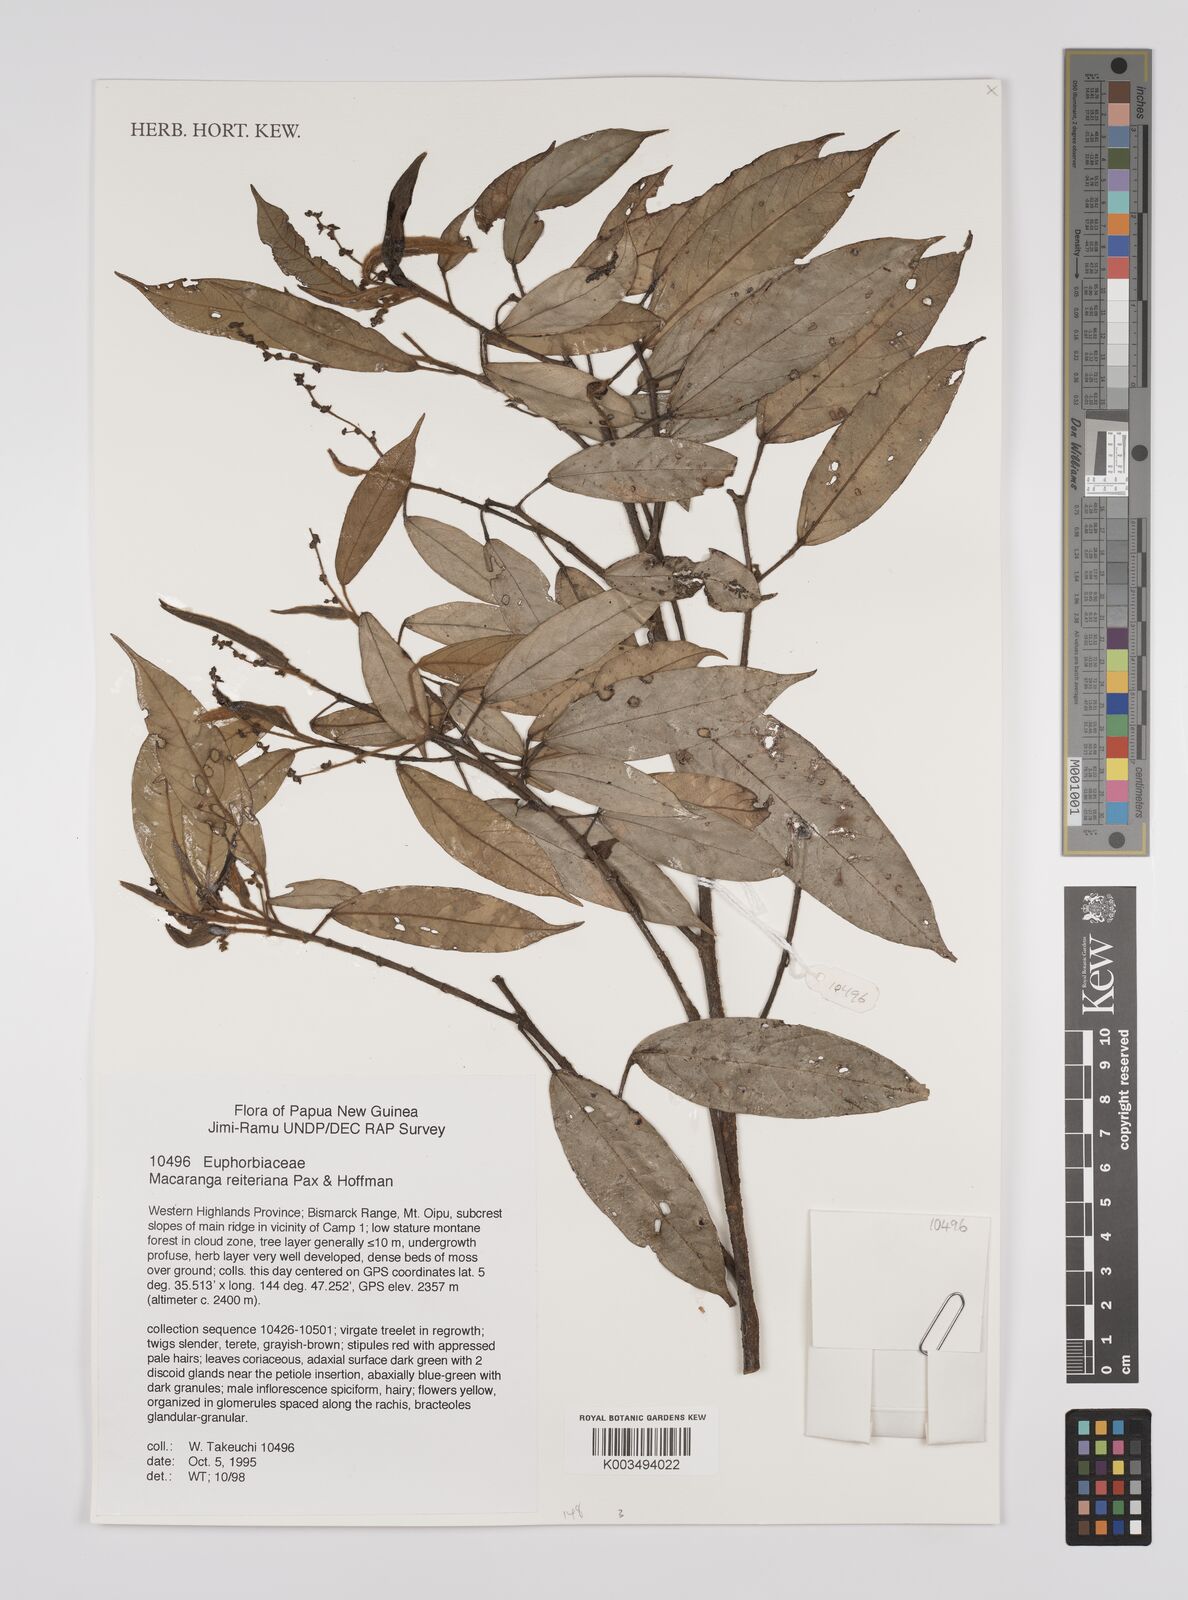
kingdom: Plantae
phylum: Tracheophyta
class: Magnoliopsida
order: Malpighiales
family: Euphorbiaceae
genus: Macaranga
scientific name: Macaranga reiteriana
